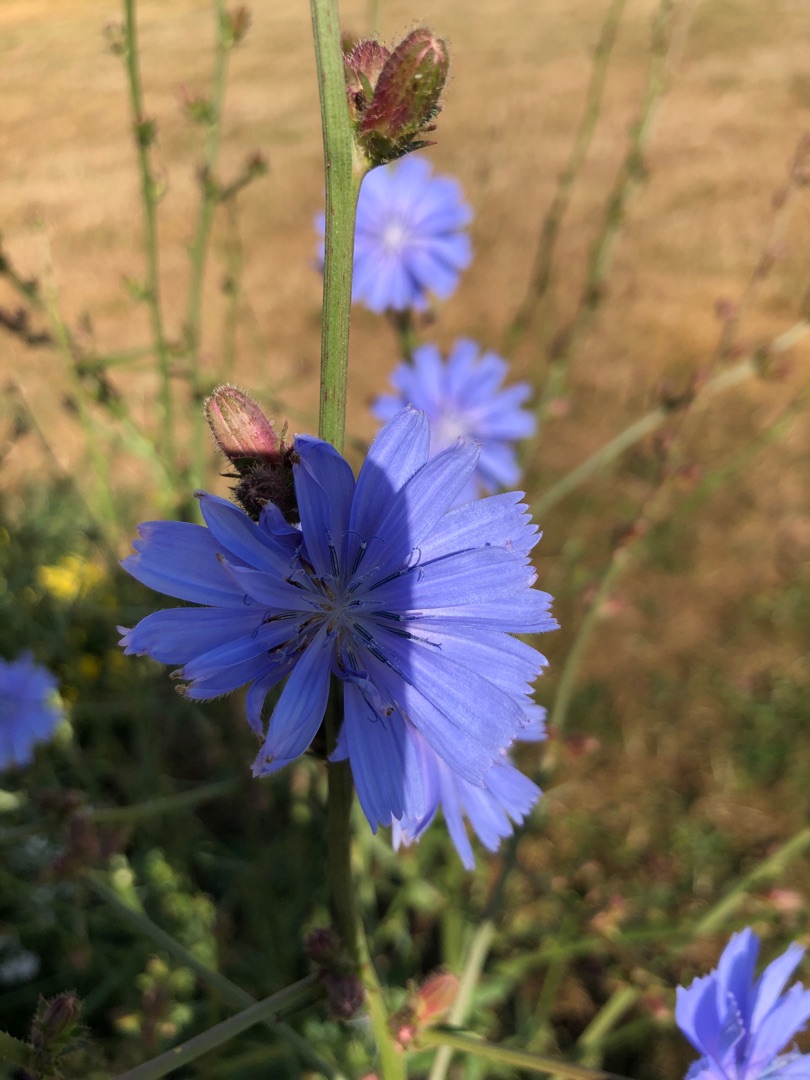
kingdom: Plantae
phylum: Tracheophyta
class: Magnoliopsida
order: Asterales
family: Asteraceae
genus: Cichorium
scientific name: Cichorium intybus
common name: Cikorie
